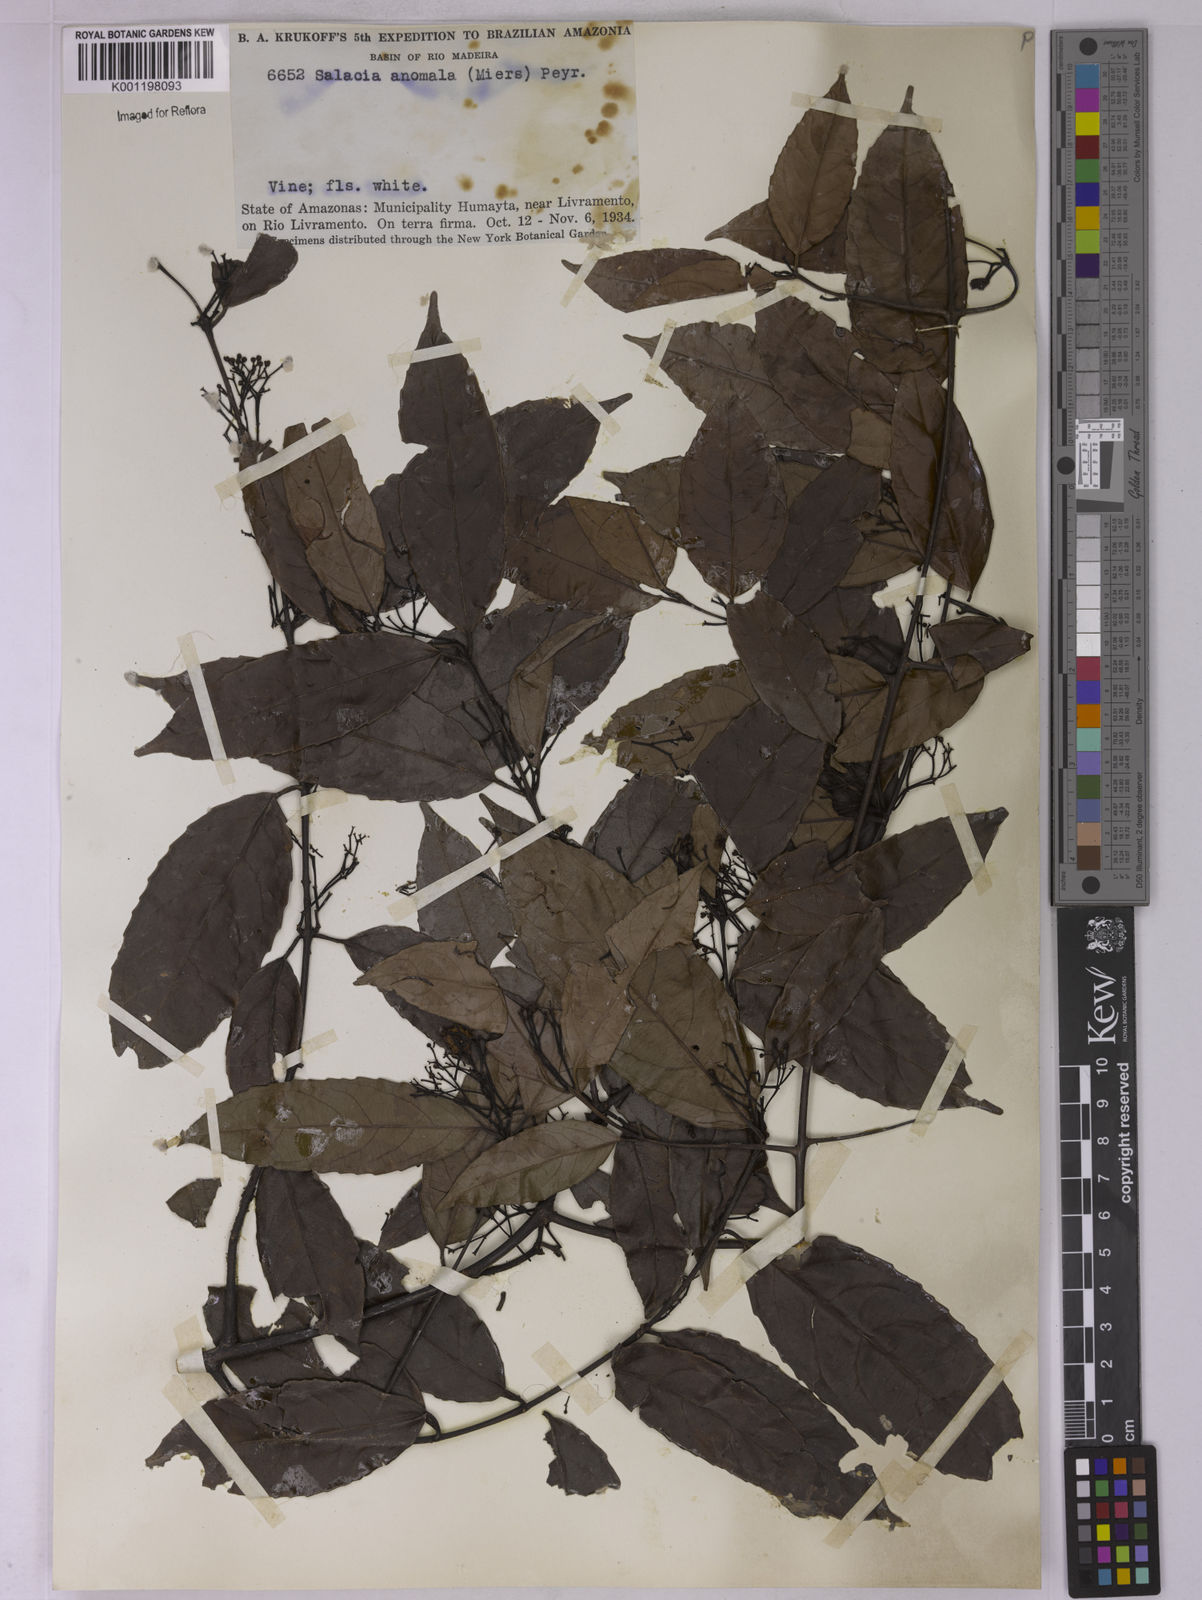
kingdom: Plantae
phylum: Tracheophyta
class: Magnoliopsida
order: Celastrales
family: Celastraceae
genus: Cheiloclinium
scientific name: Cheiloclinium anomalum
